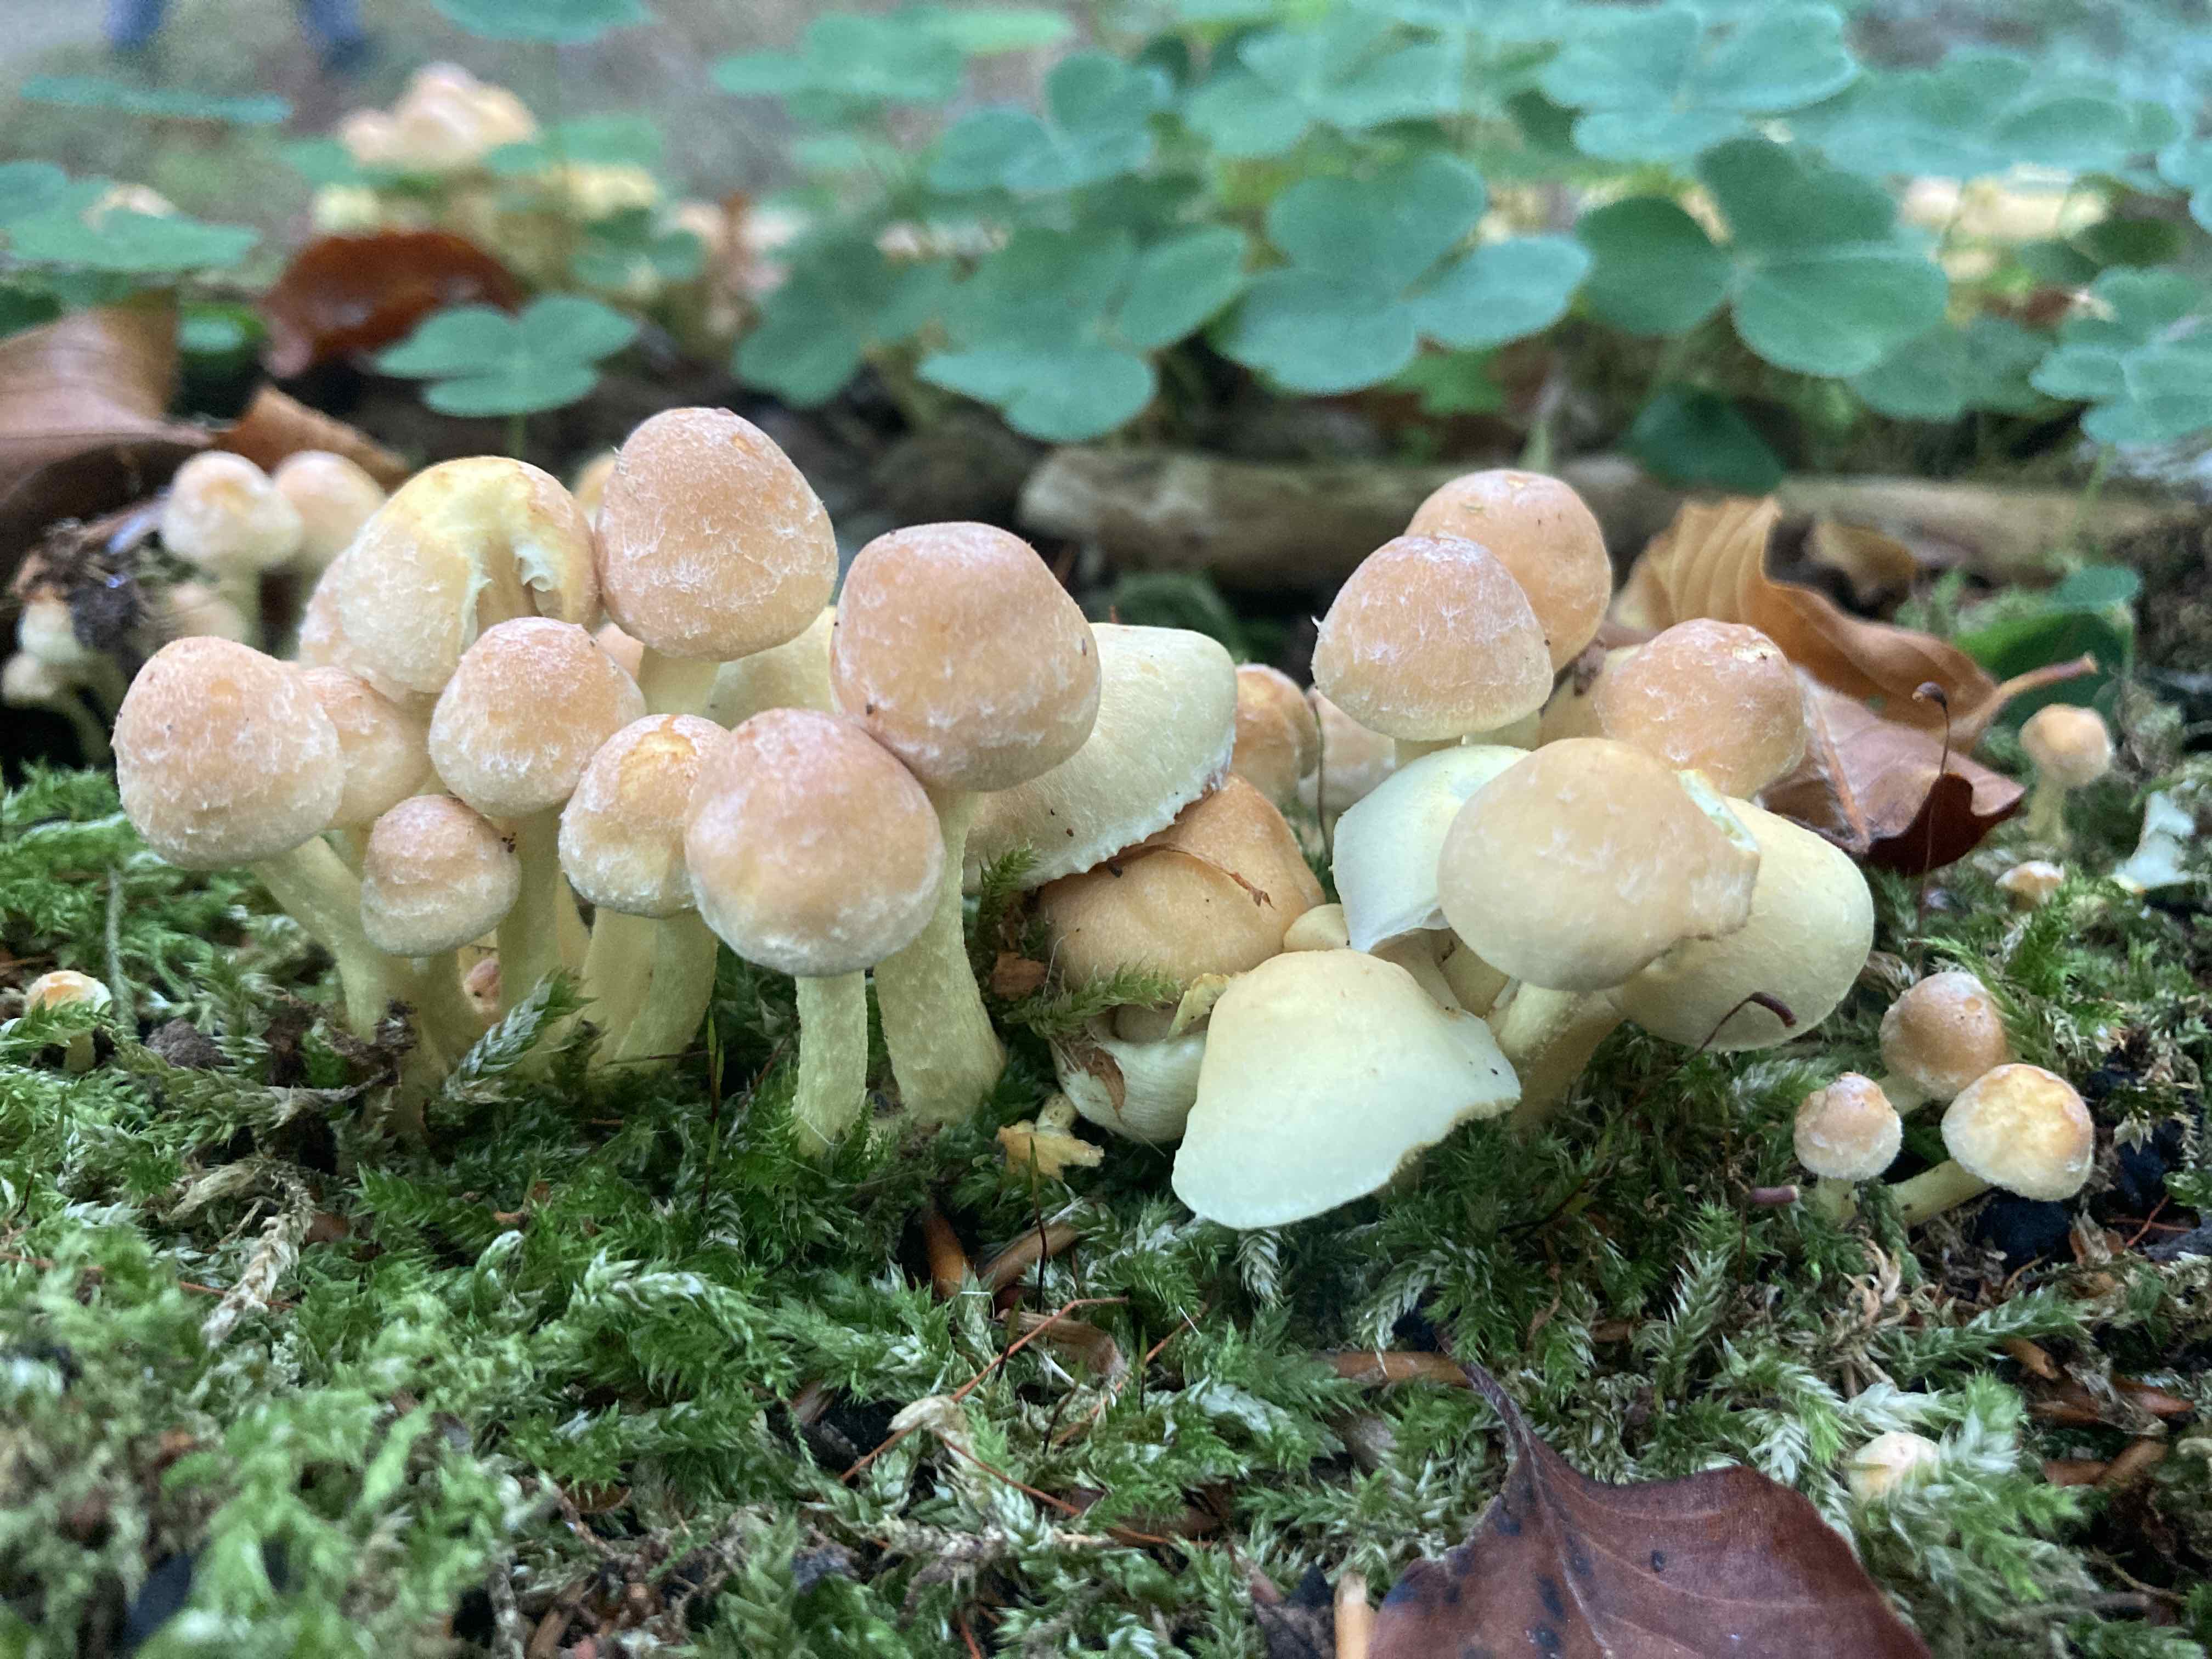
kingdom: Fungi
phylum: Basidiomycota
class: Agaricomycetes
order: Agaricales
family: Strophariaceae
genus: Hypholoma
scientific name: Hypholoma fasciculare
